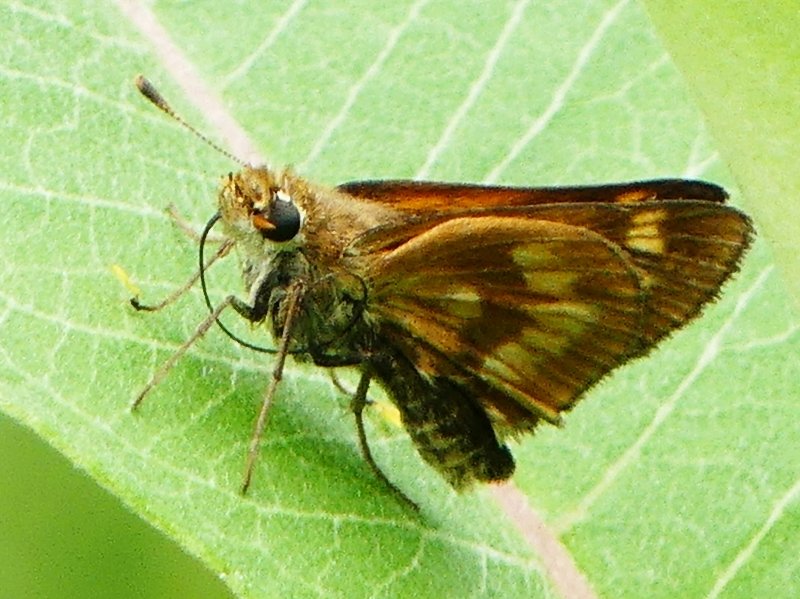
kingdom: Animalia
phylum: Arthropoda
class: Insecta
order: Lepidoptera
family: Hesperiidae
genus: Polites
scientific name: Polites
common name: Long Dash Skipper
